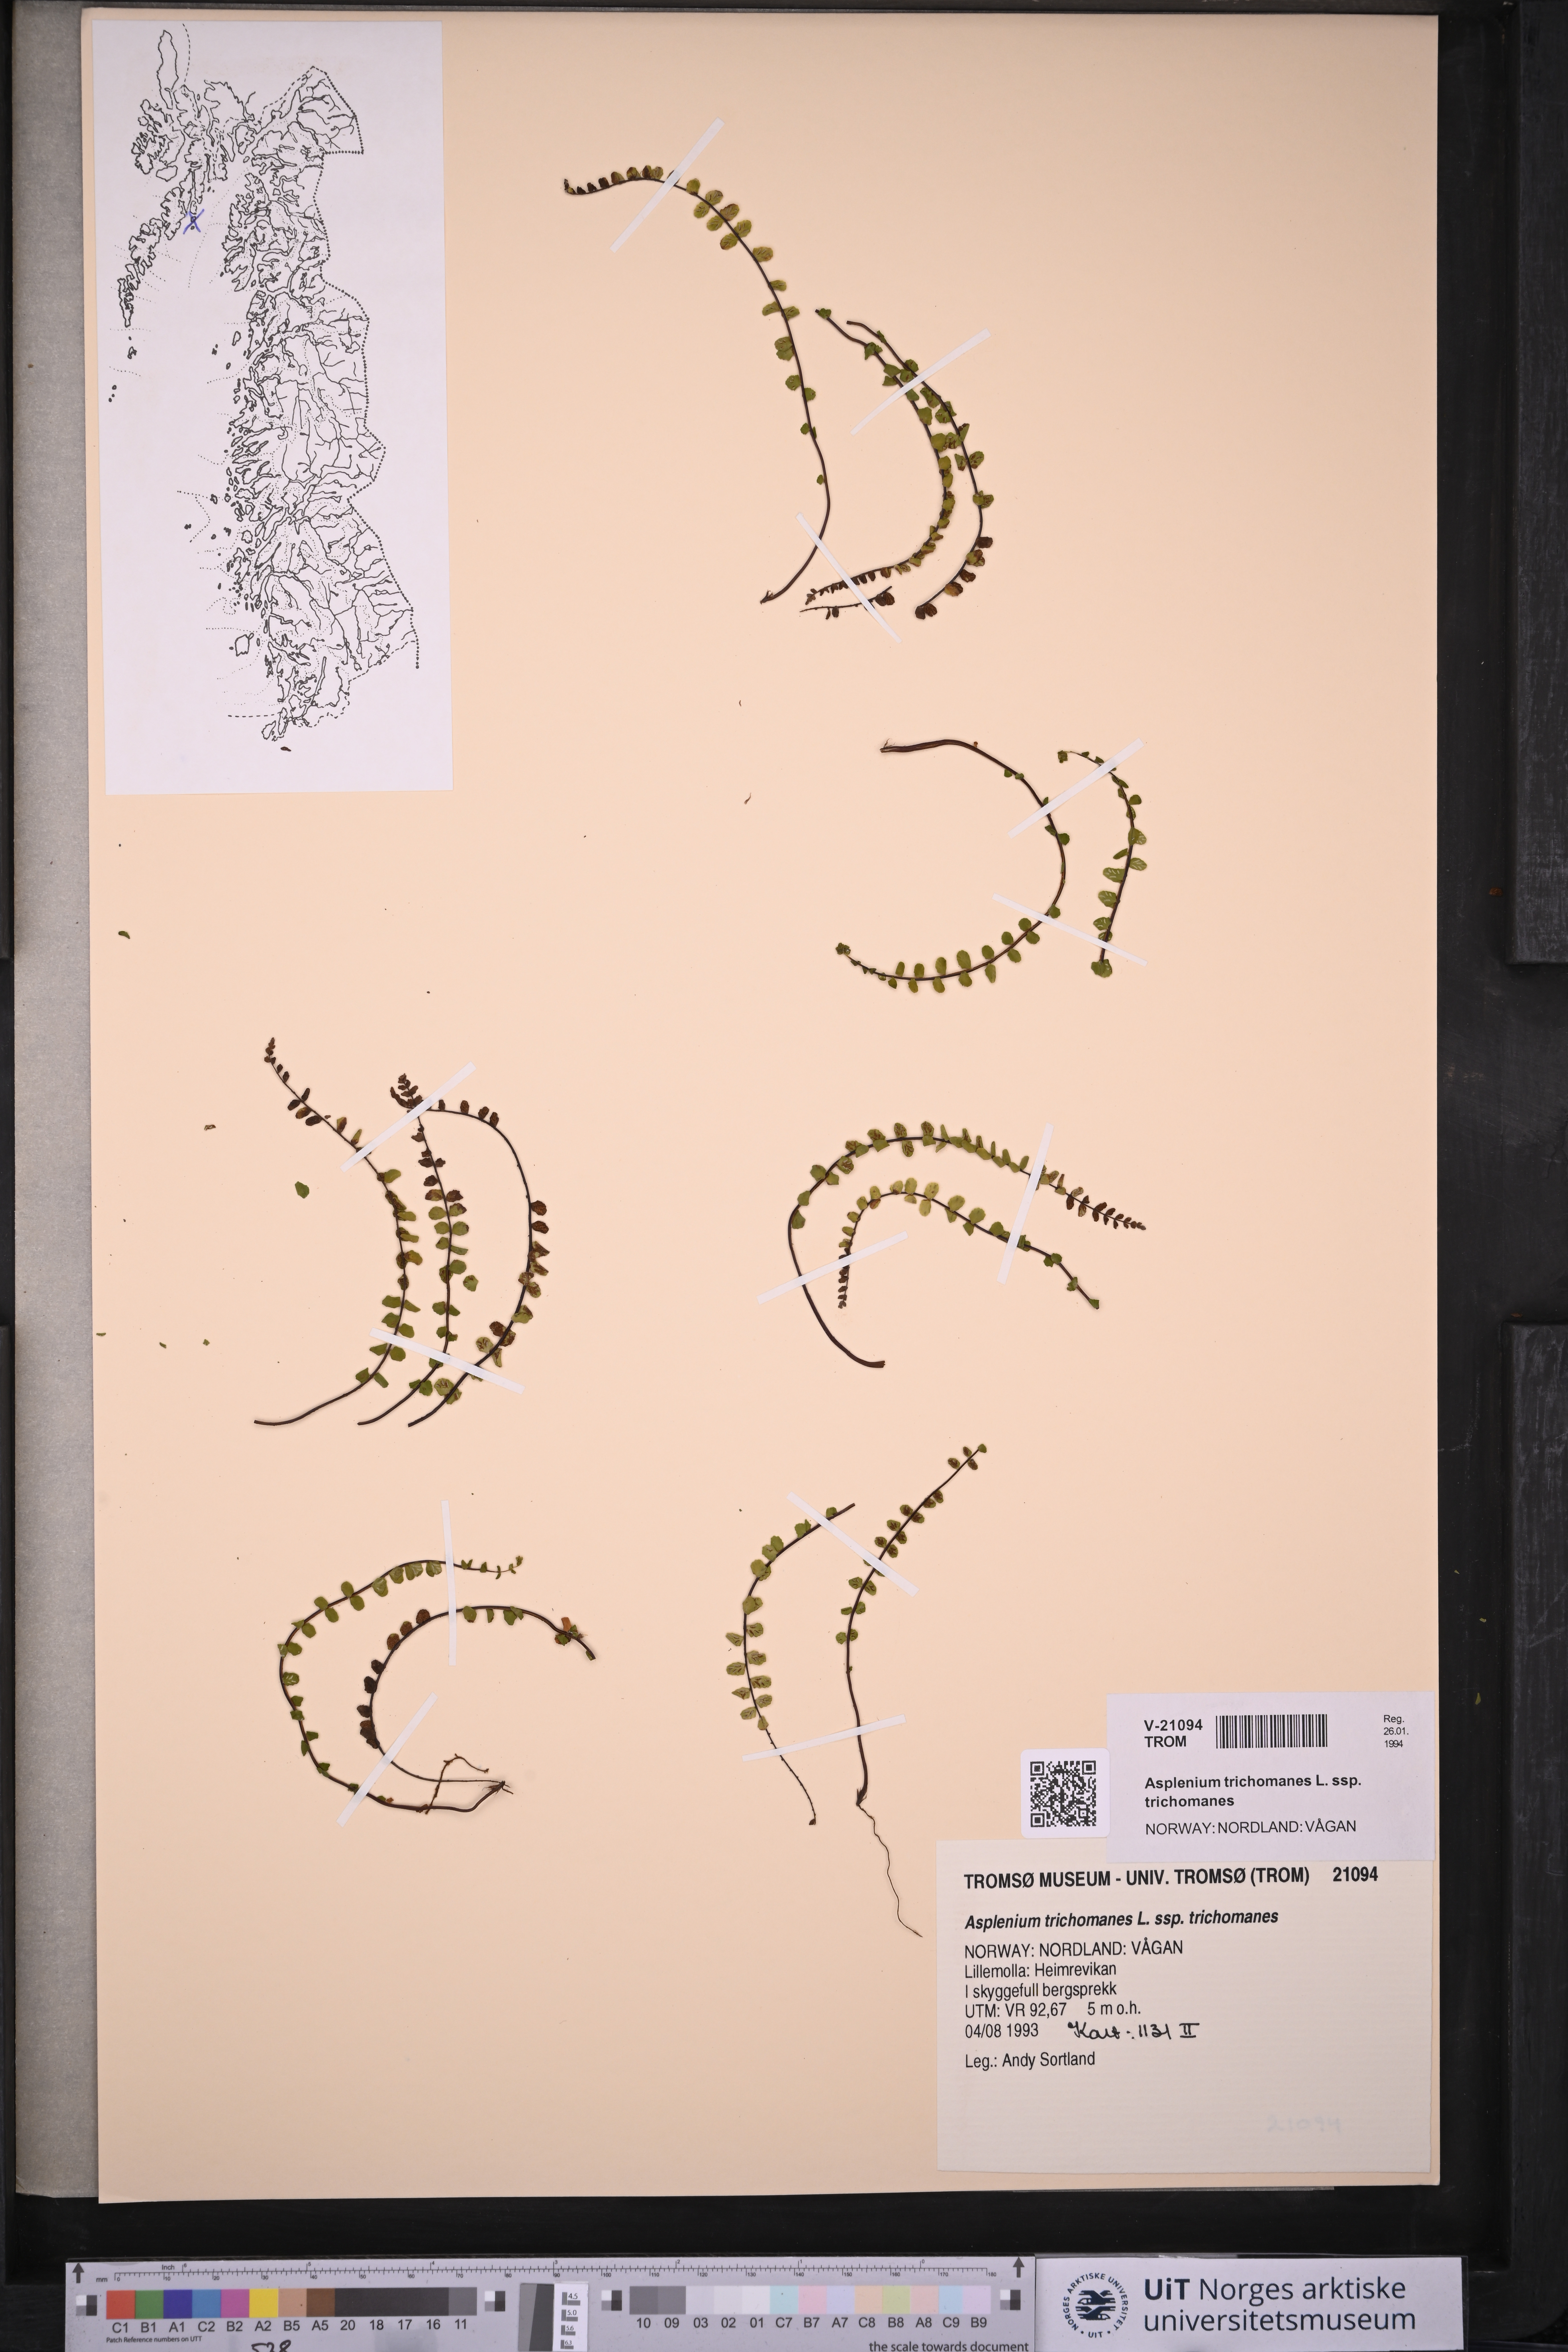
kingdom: Plantae
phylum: Tracheophyta
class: Polypodiopsida
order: Polypodiales
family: Aspleniaceae
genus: Asplenium
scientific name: Asplenium trichomanes
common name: Maidenhair spleenwort
